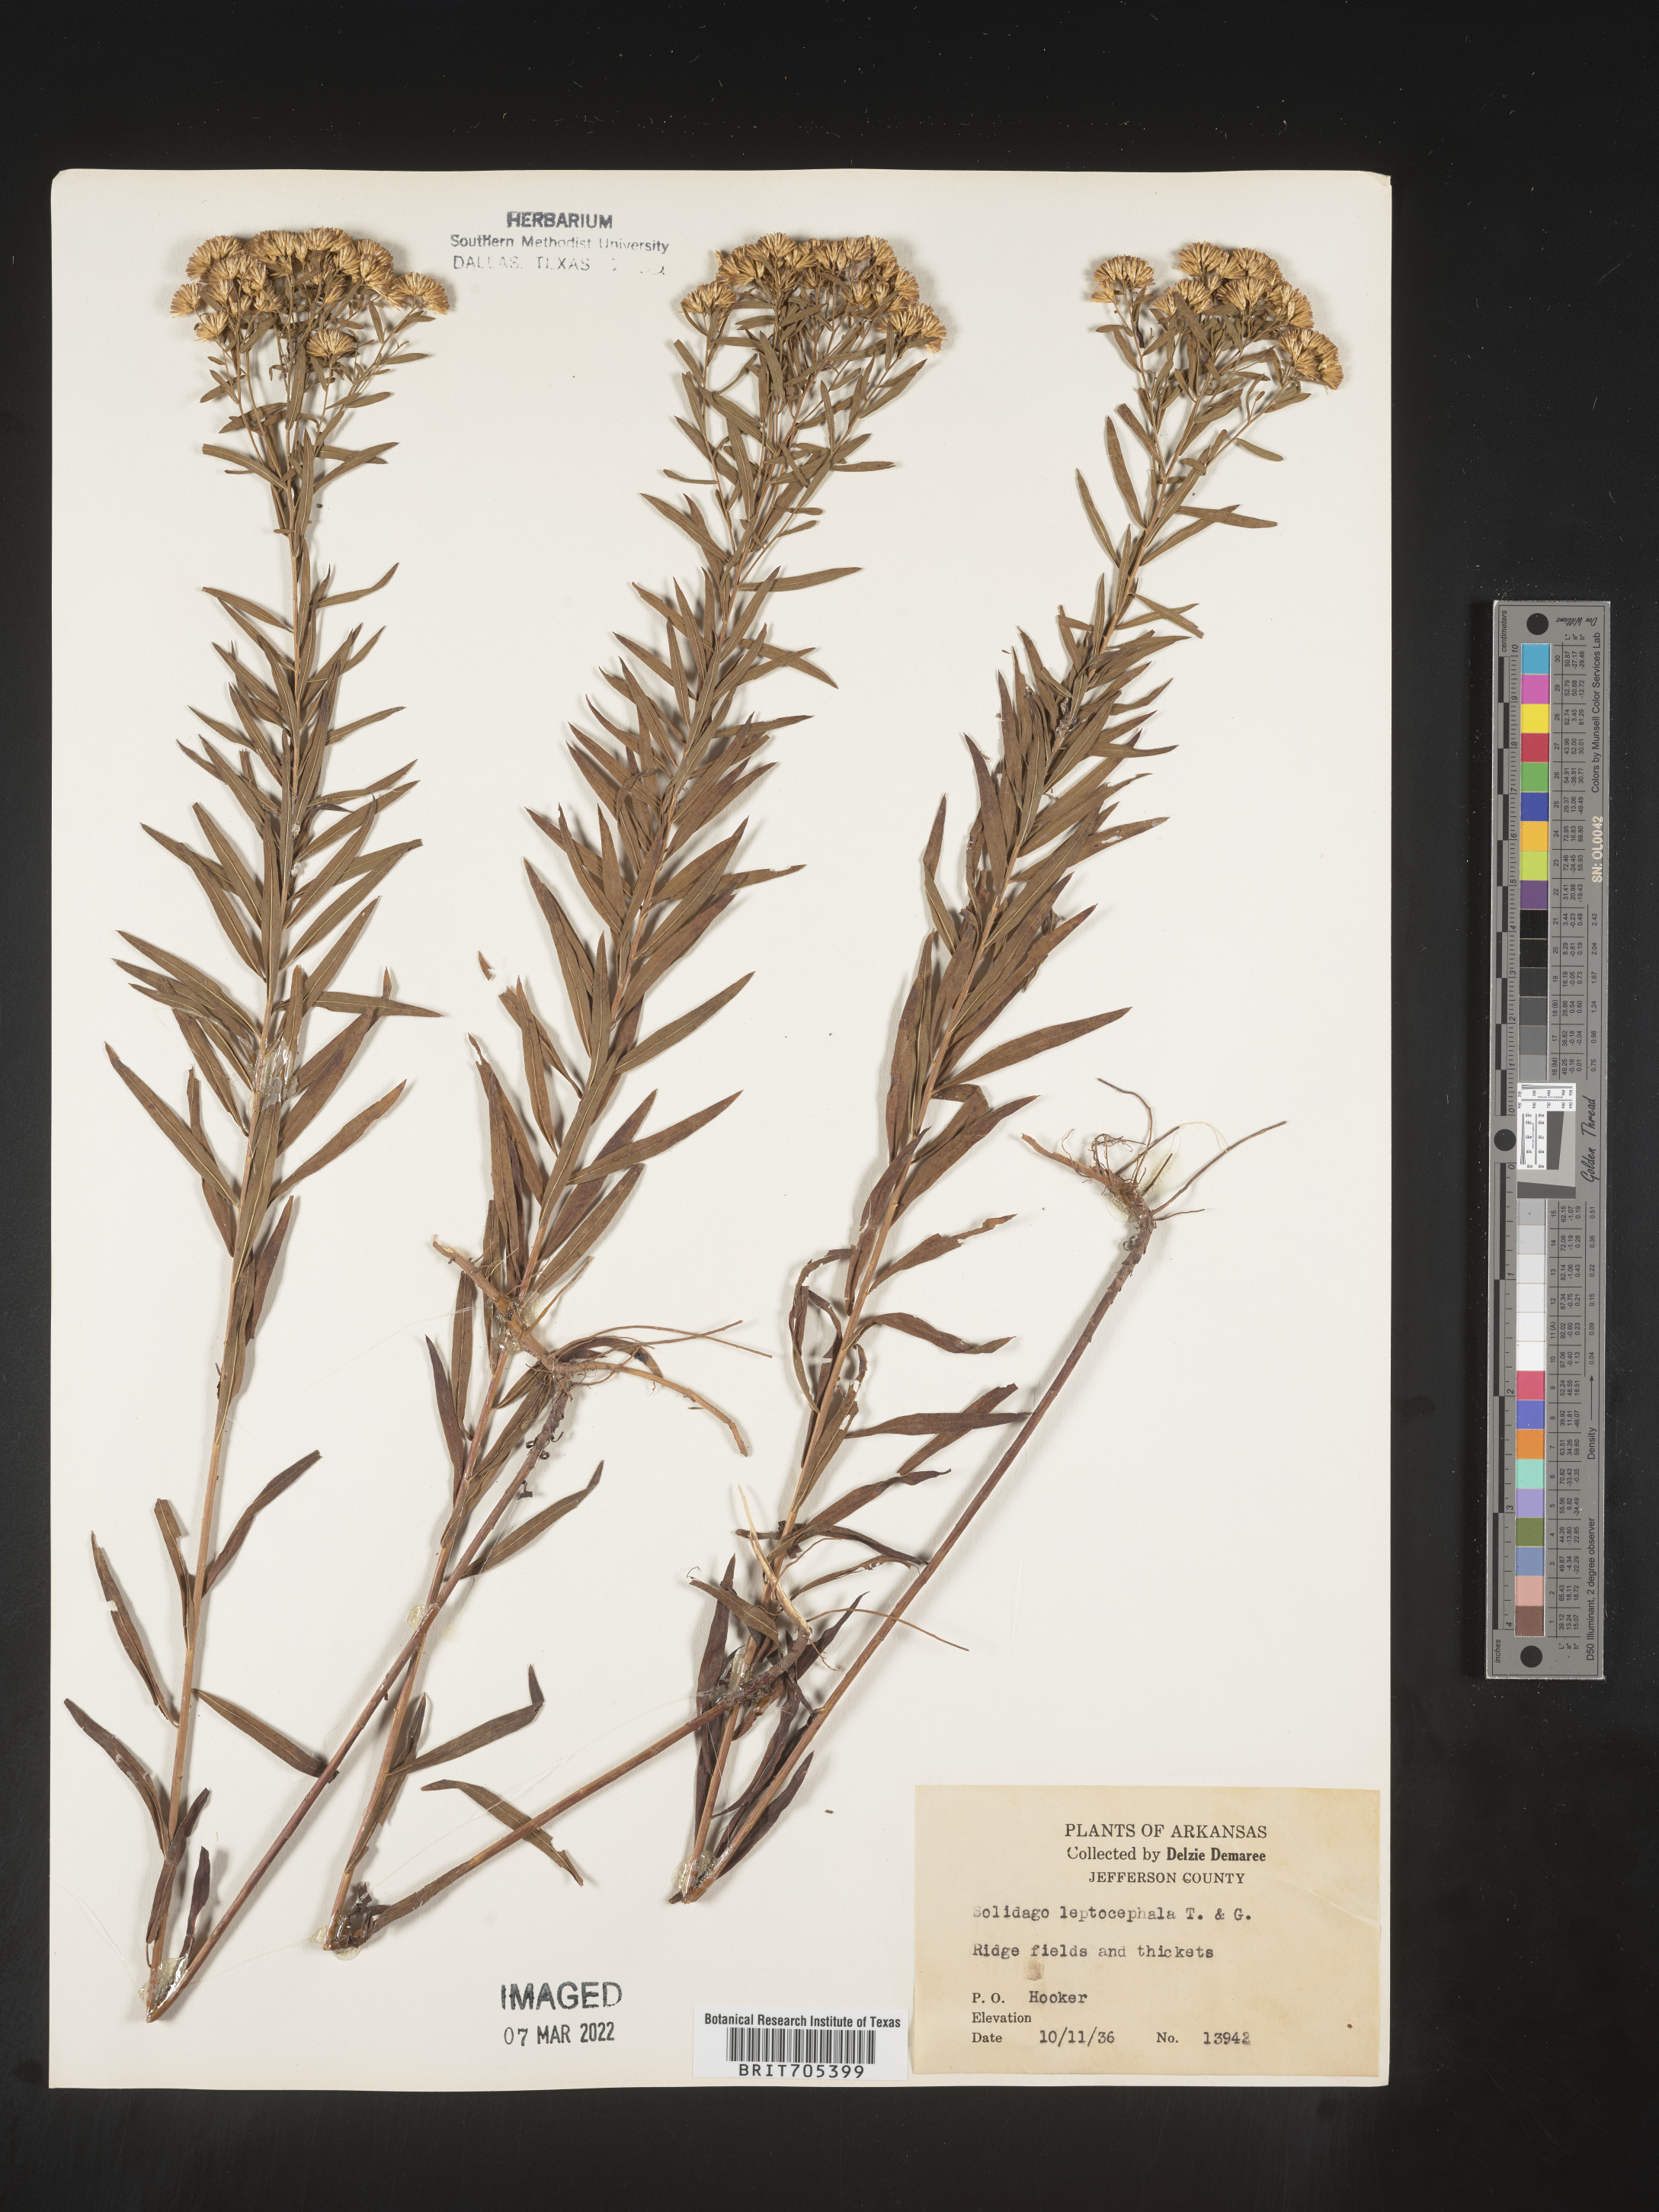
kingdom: Plantae
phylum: Tracheophyta
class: Magnoliopsida
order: Asterales
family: Asteraceae
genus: Euthamia
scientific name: Euthamia leptocephala
